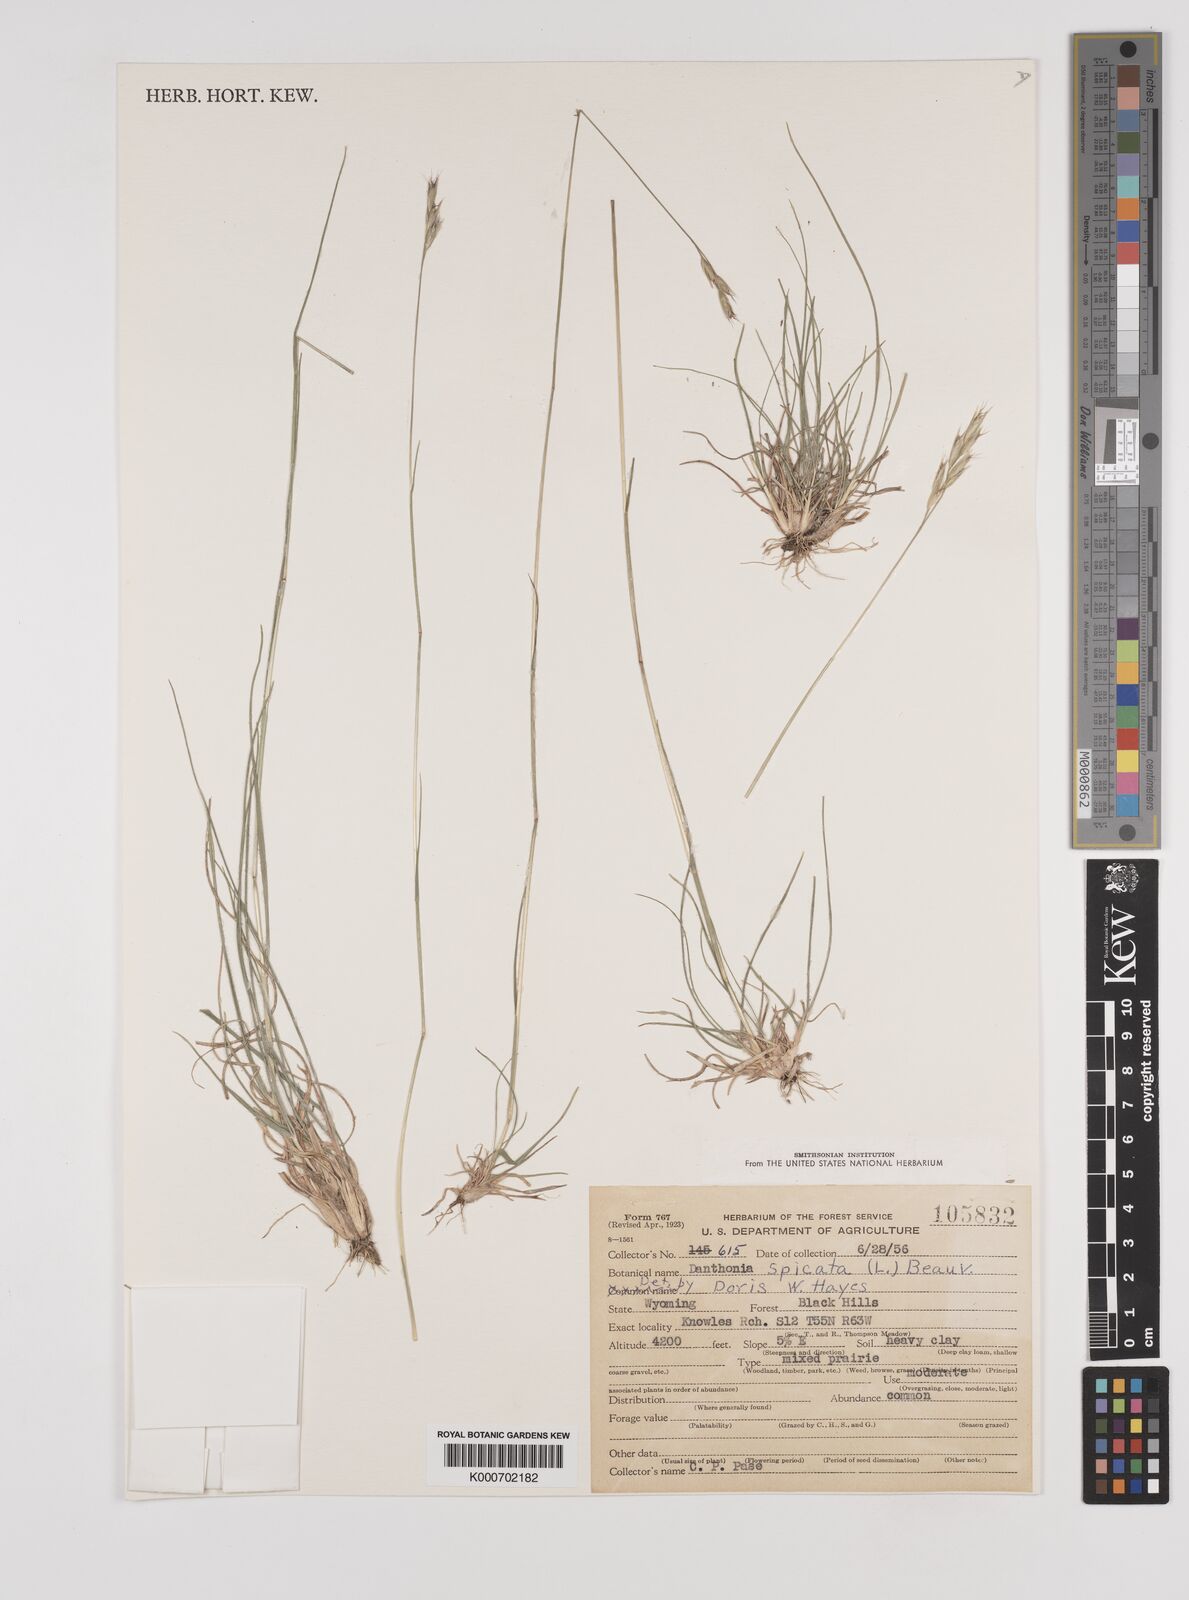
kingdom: Plantae
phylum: Tracheophyta
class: Liliopsida
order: Poales
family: Poaceae
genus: Danthonia
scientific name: Danthonia spicata
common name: Common wild oatgrass
